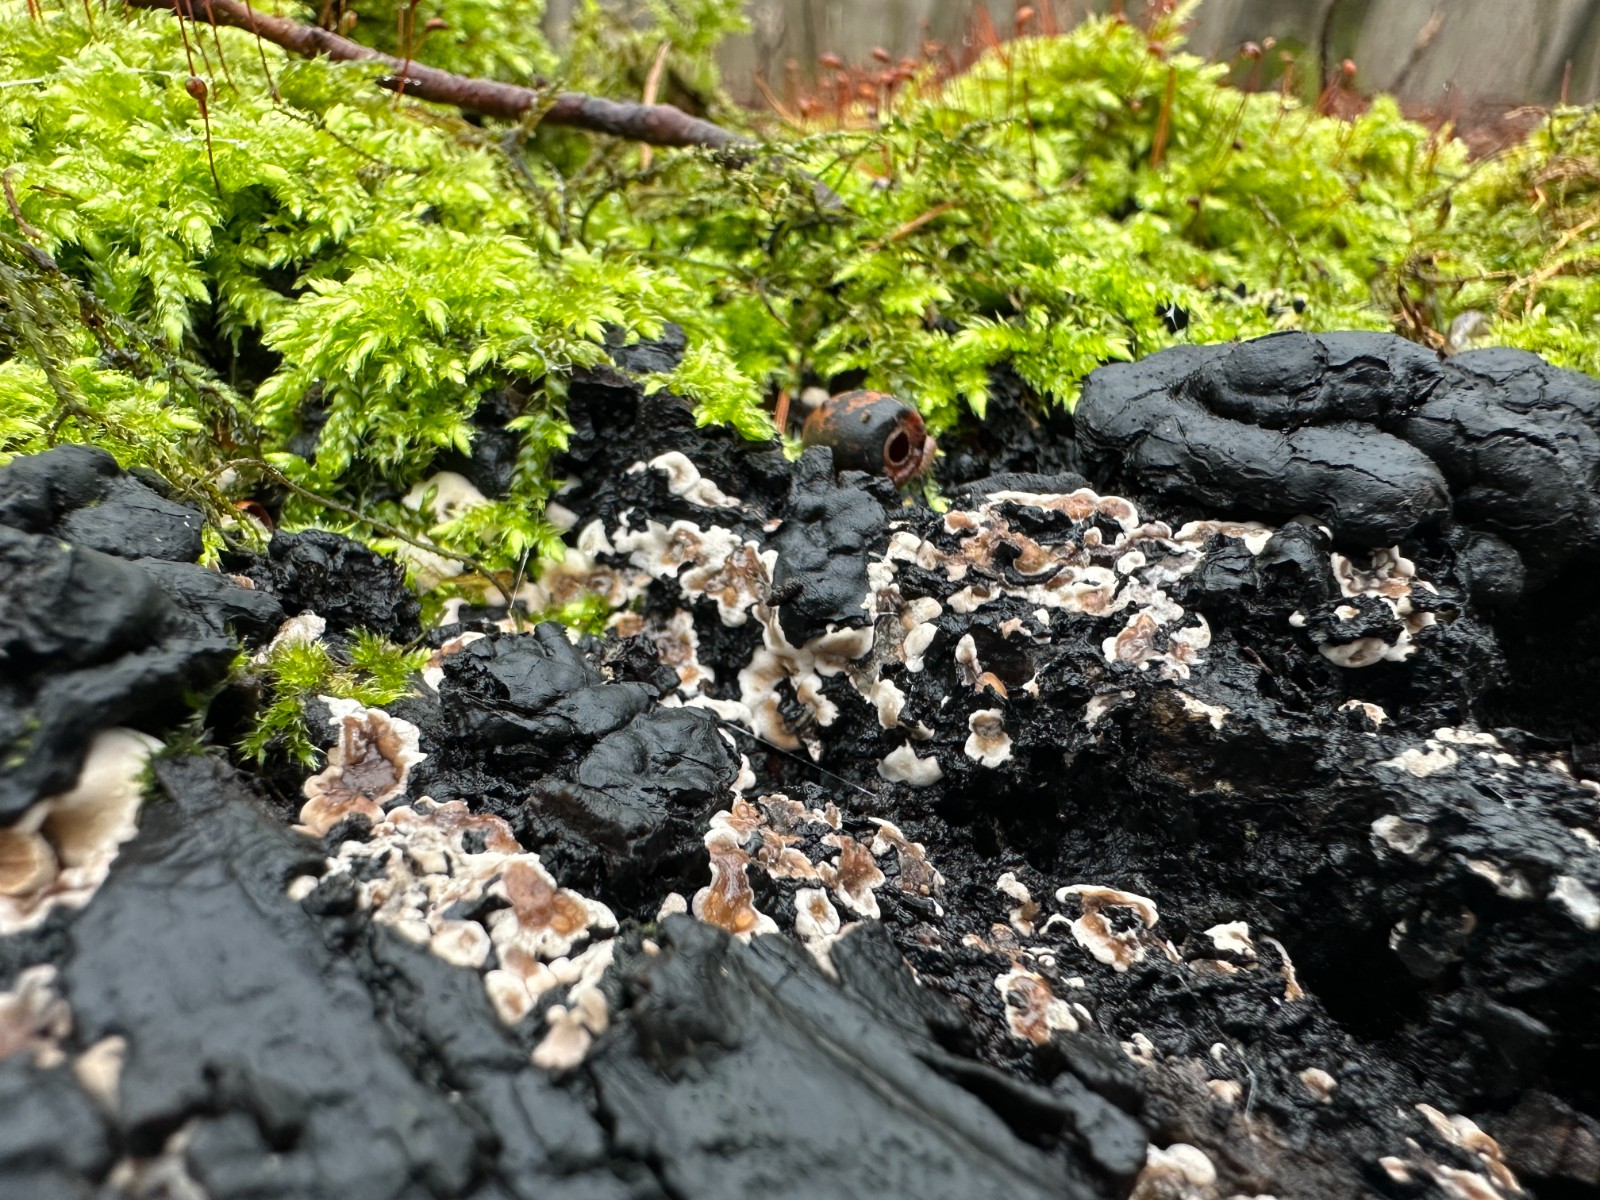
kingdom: Fungi
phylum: Ascomycota
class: Sordariomycetes
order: Xylariales
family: Xylariaceae
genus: Kretzschmaria
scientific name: Kretzschmaria deusta
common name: stor kulsvamp
